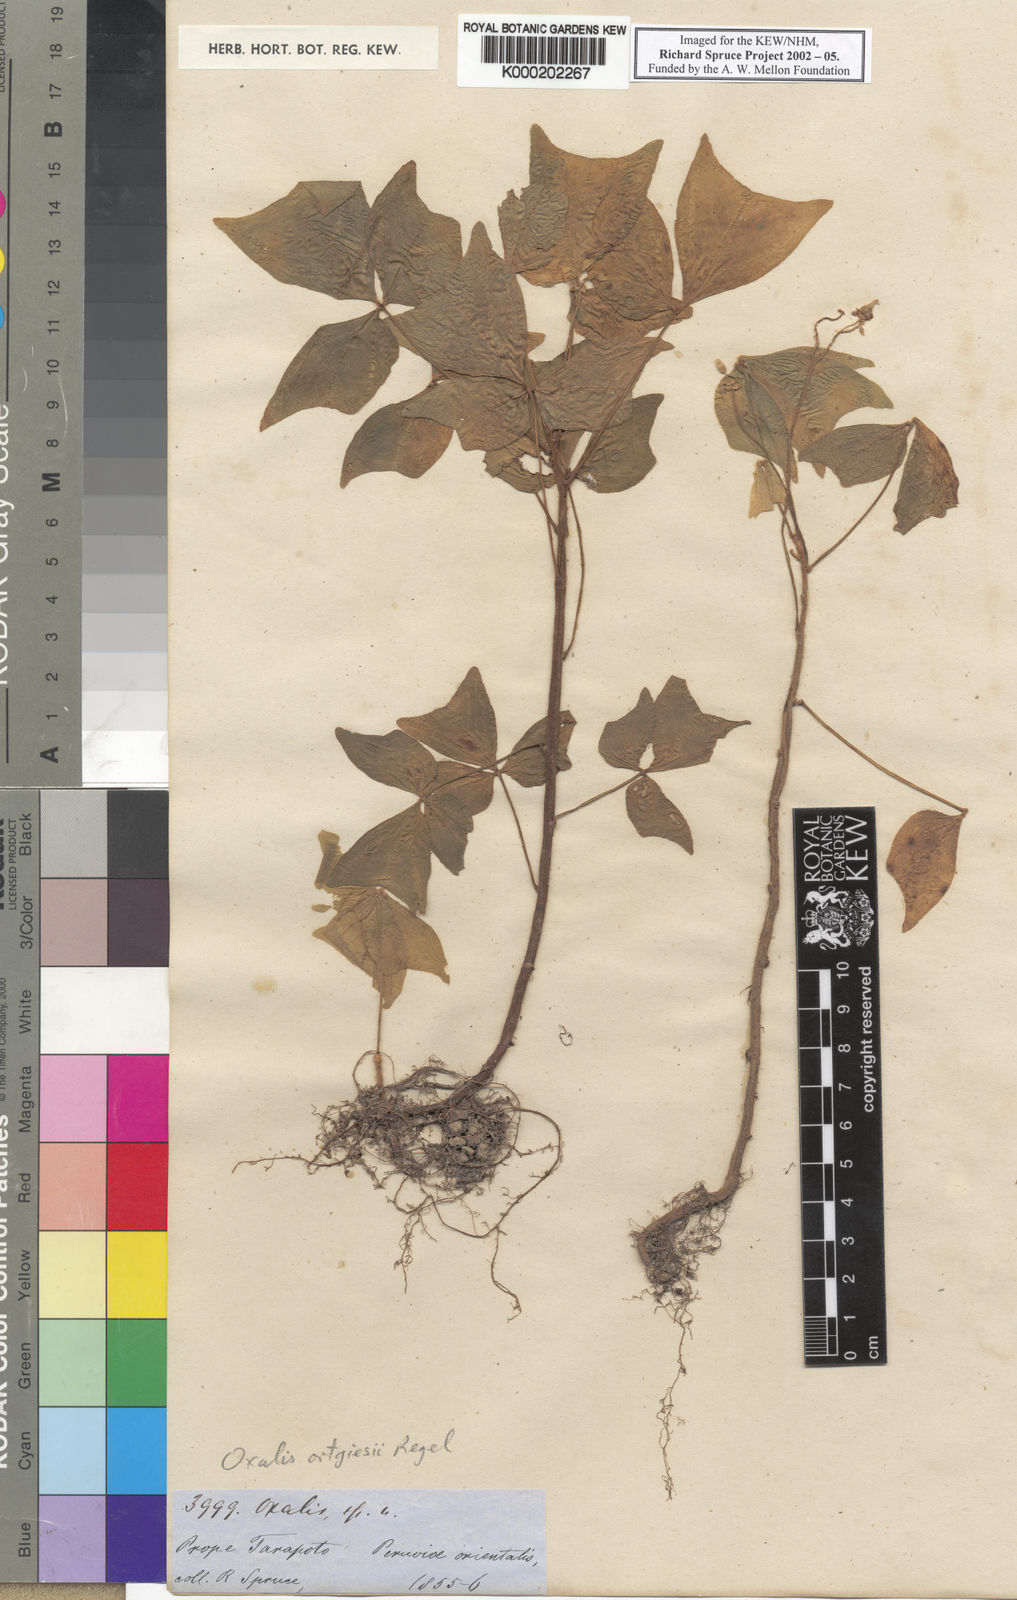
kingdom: Plantae
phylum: Tracheophyta
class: Magnoliopsida
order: Oxalidales
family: Oxalidaceae
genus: Oxalis
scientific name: Oxalis
